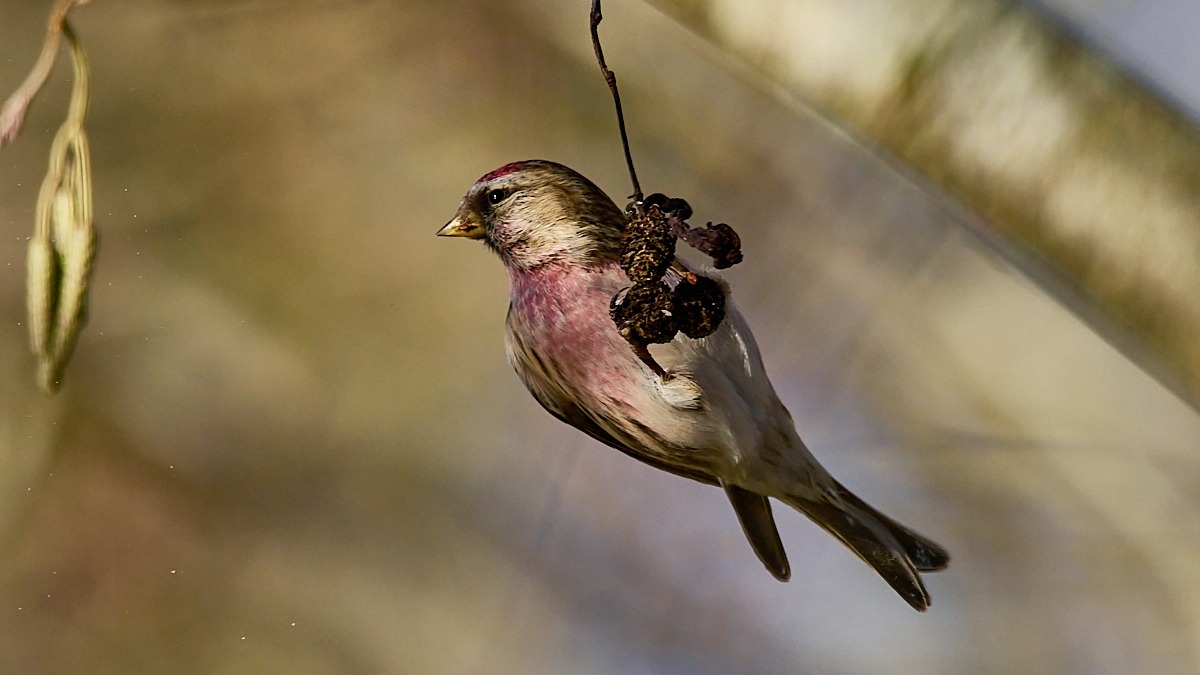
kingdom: Animalia
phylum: Chordata
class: Aves
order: Passeriformes
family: Fringillidae
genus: Acanthis
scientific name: Acanthis flammea
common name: Nordlig gråsisken
